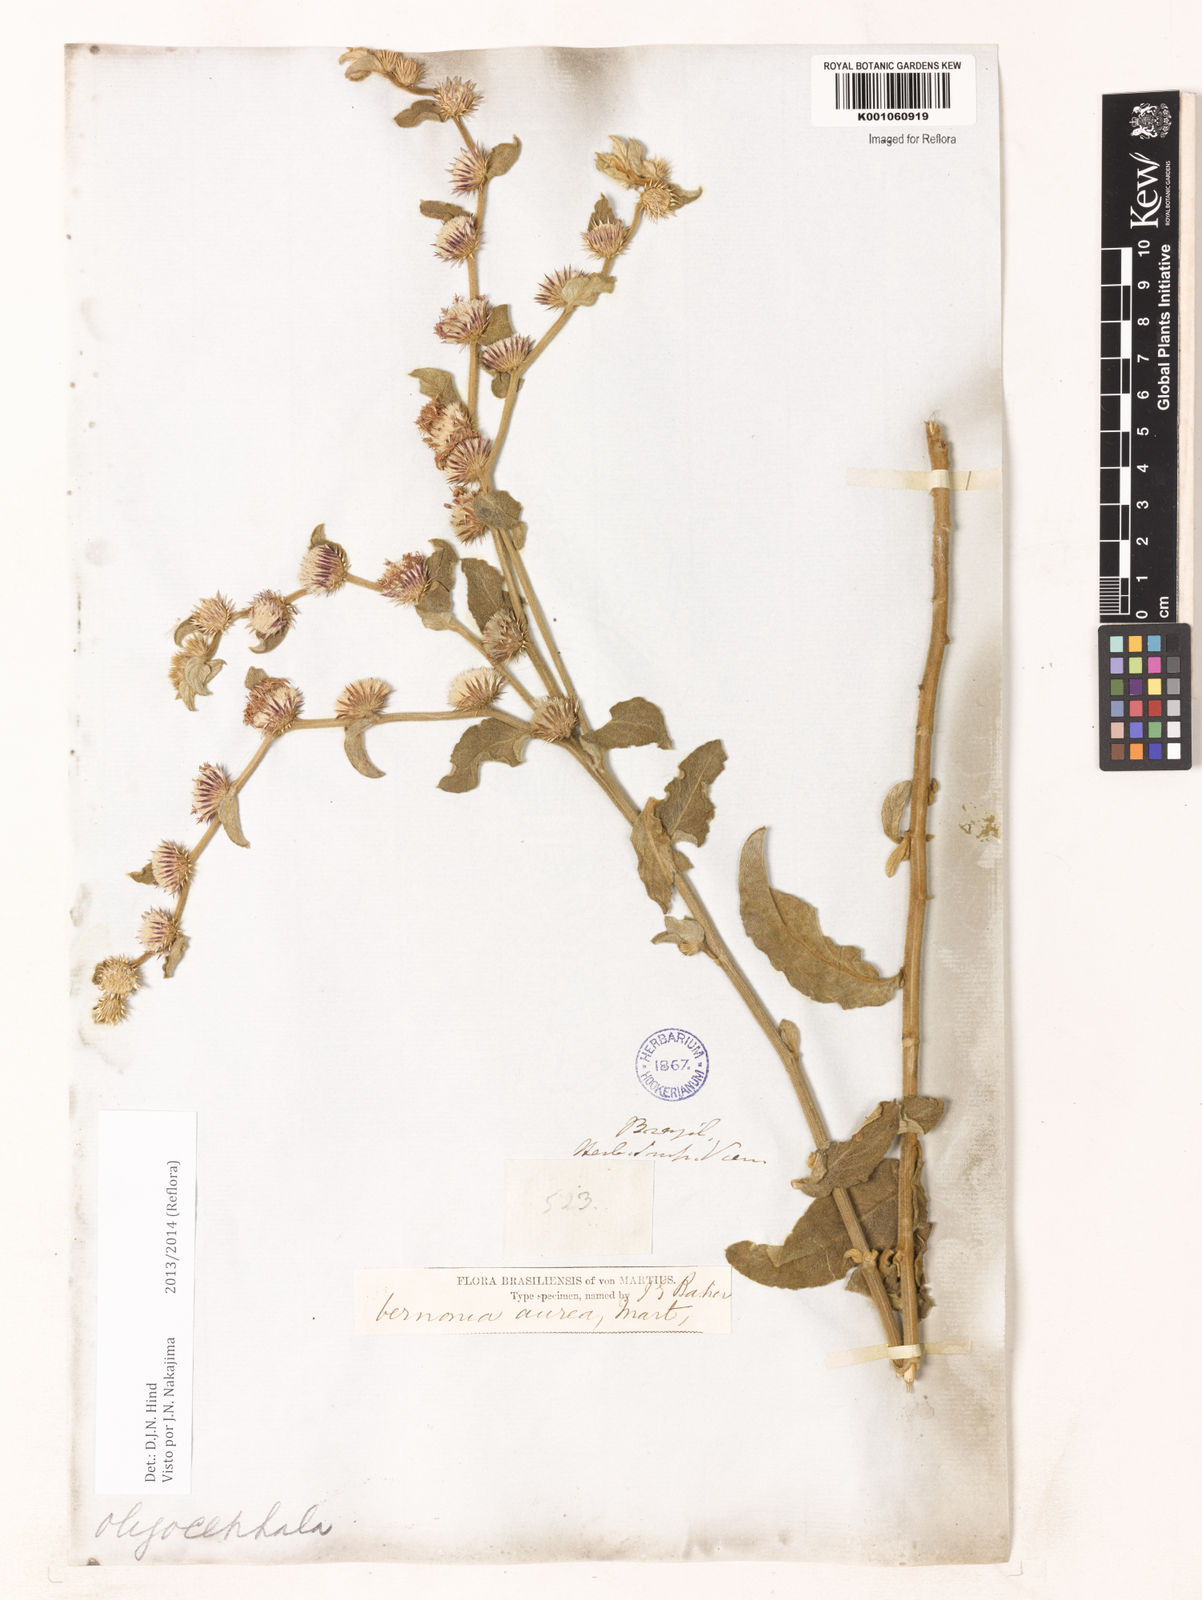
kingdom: Plantae
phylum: Tracheophyta
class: Magnoliopsida
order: Asterales
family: Asteraceae
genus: Lepidaploa
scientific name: Lepidaploa aurea
